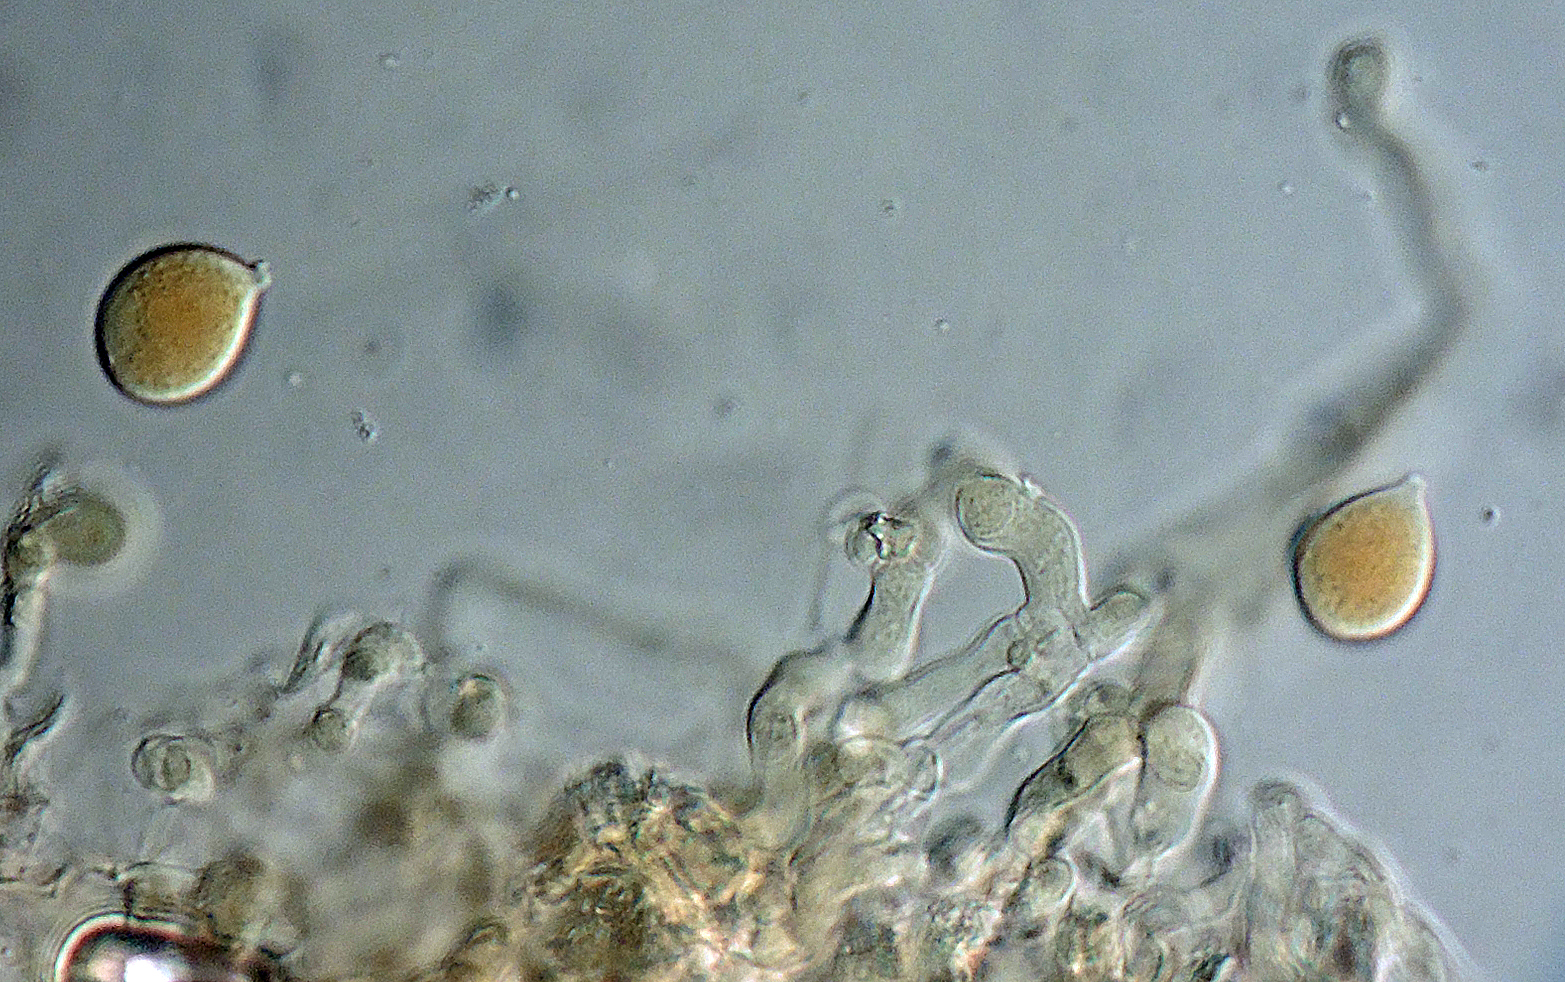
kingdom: Fungi
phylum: Basidiomycota
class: Agaricomycetes
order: Corticiales
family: Corticiaceae
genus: Laetisaria
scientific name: Laetisaria lichenicola
